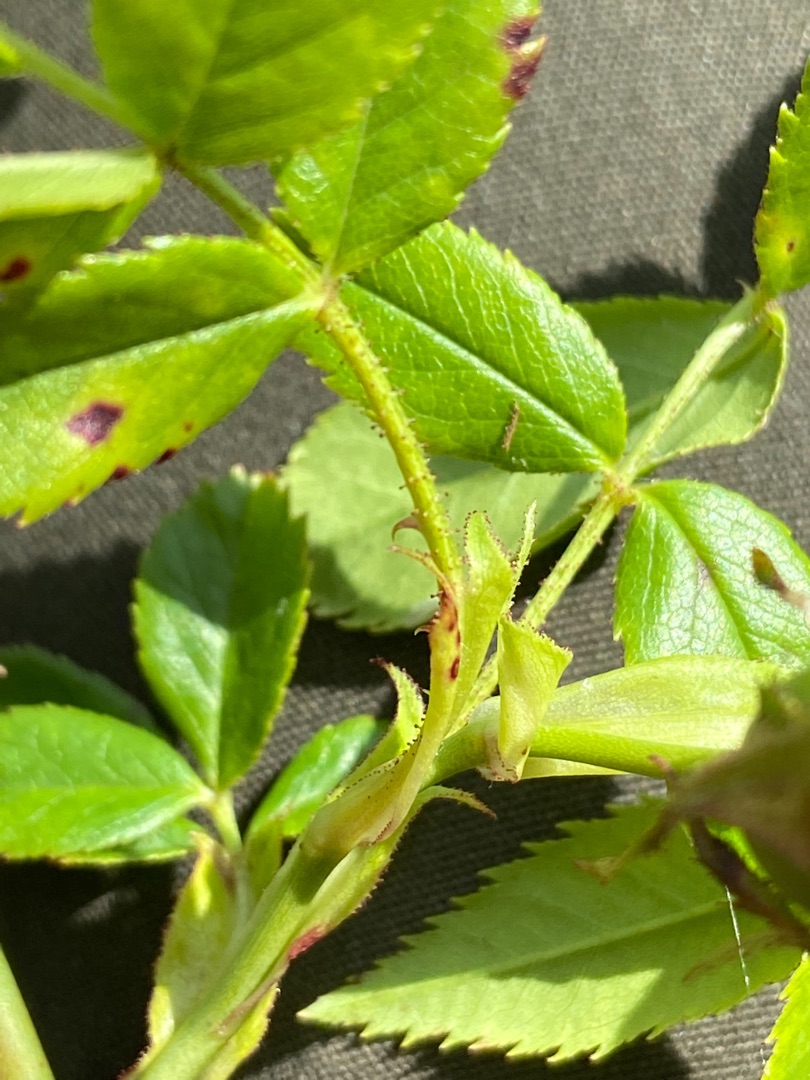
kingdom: Plantae
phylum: Tracheophyta
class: Magnoliopsida
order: Rosales
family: Rosaceae
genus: Rosa
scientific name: Rosa balsamica
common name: Rubladet rose
